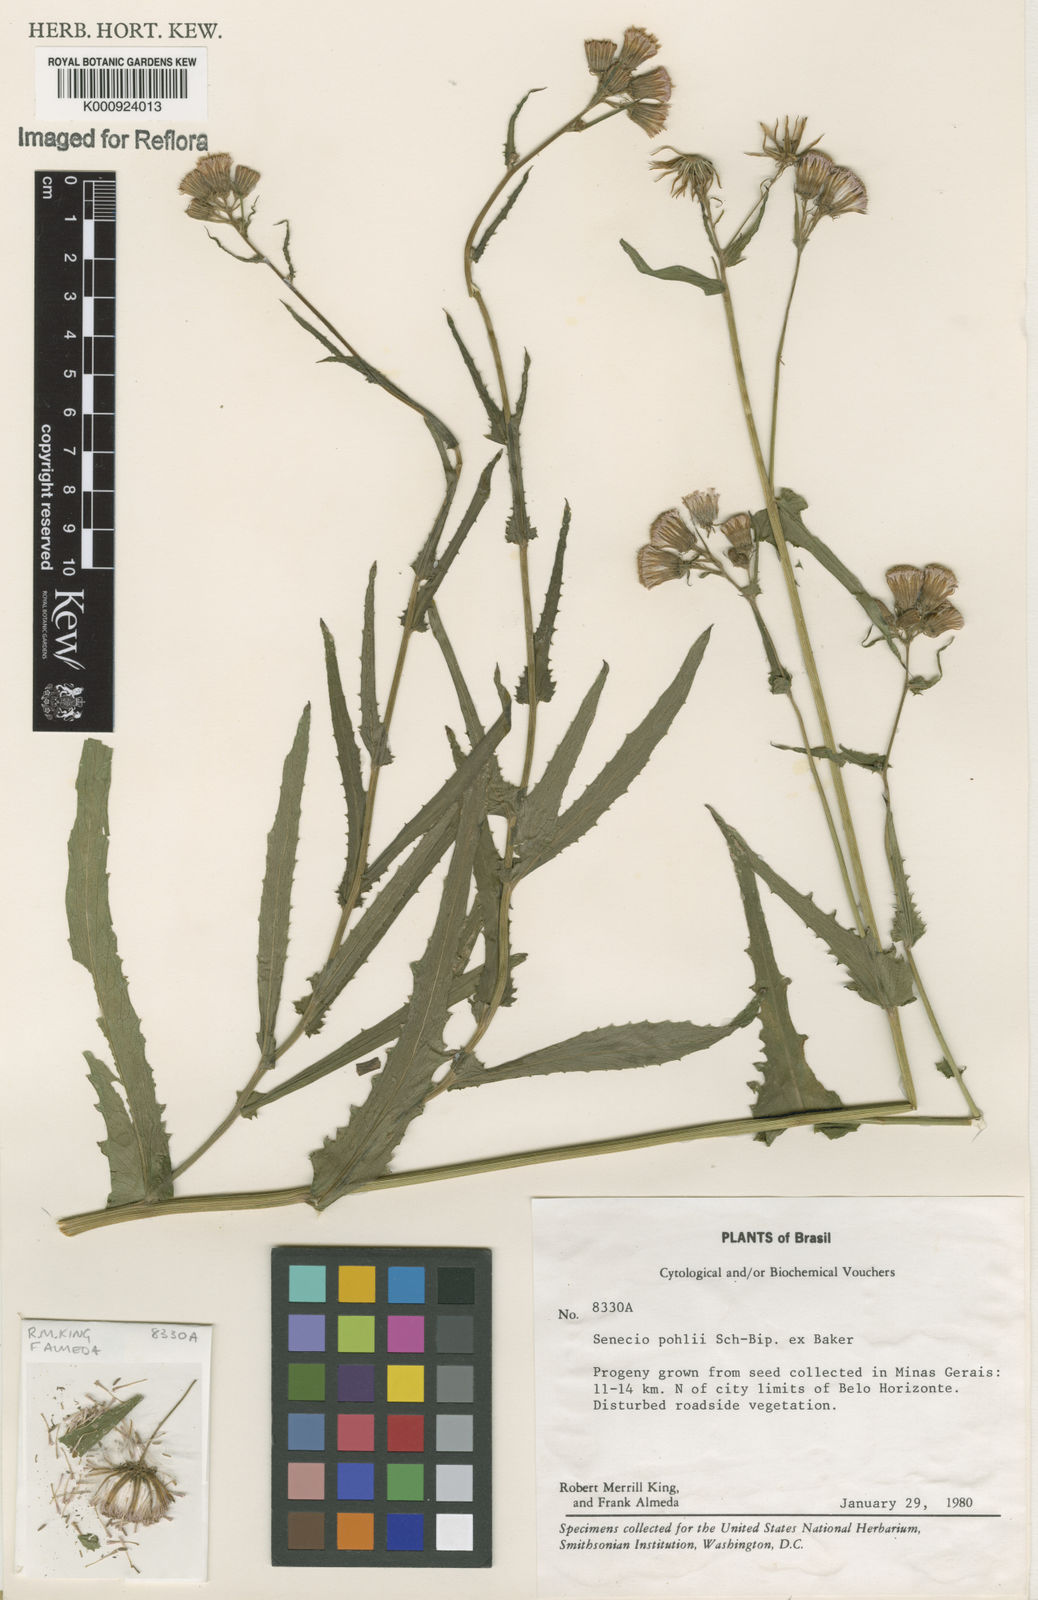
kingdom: Plantae
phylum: Tracheophyta
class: Magnoliopsida
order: Asterales
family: Asteraceae
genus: Pseudogynoxys
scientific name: Pseudogynoxys pohlii
